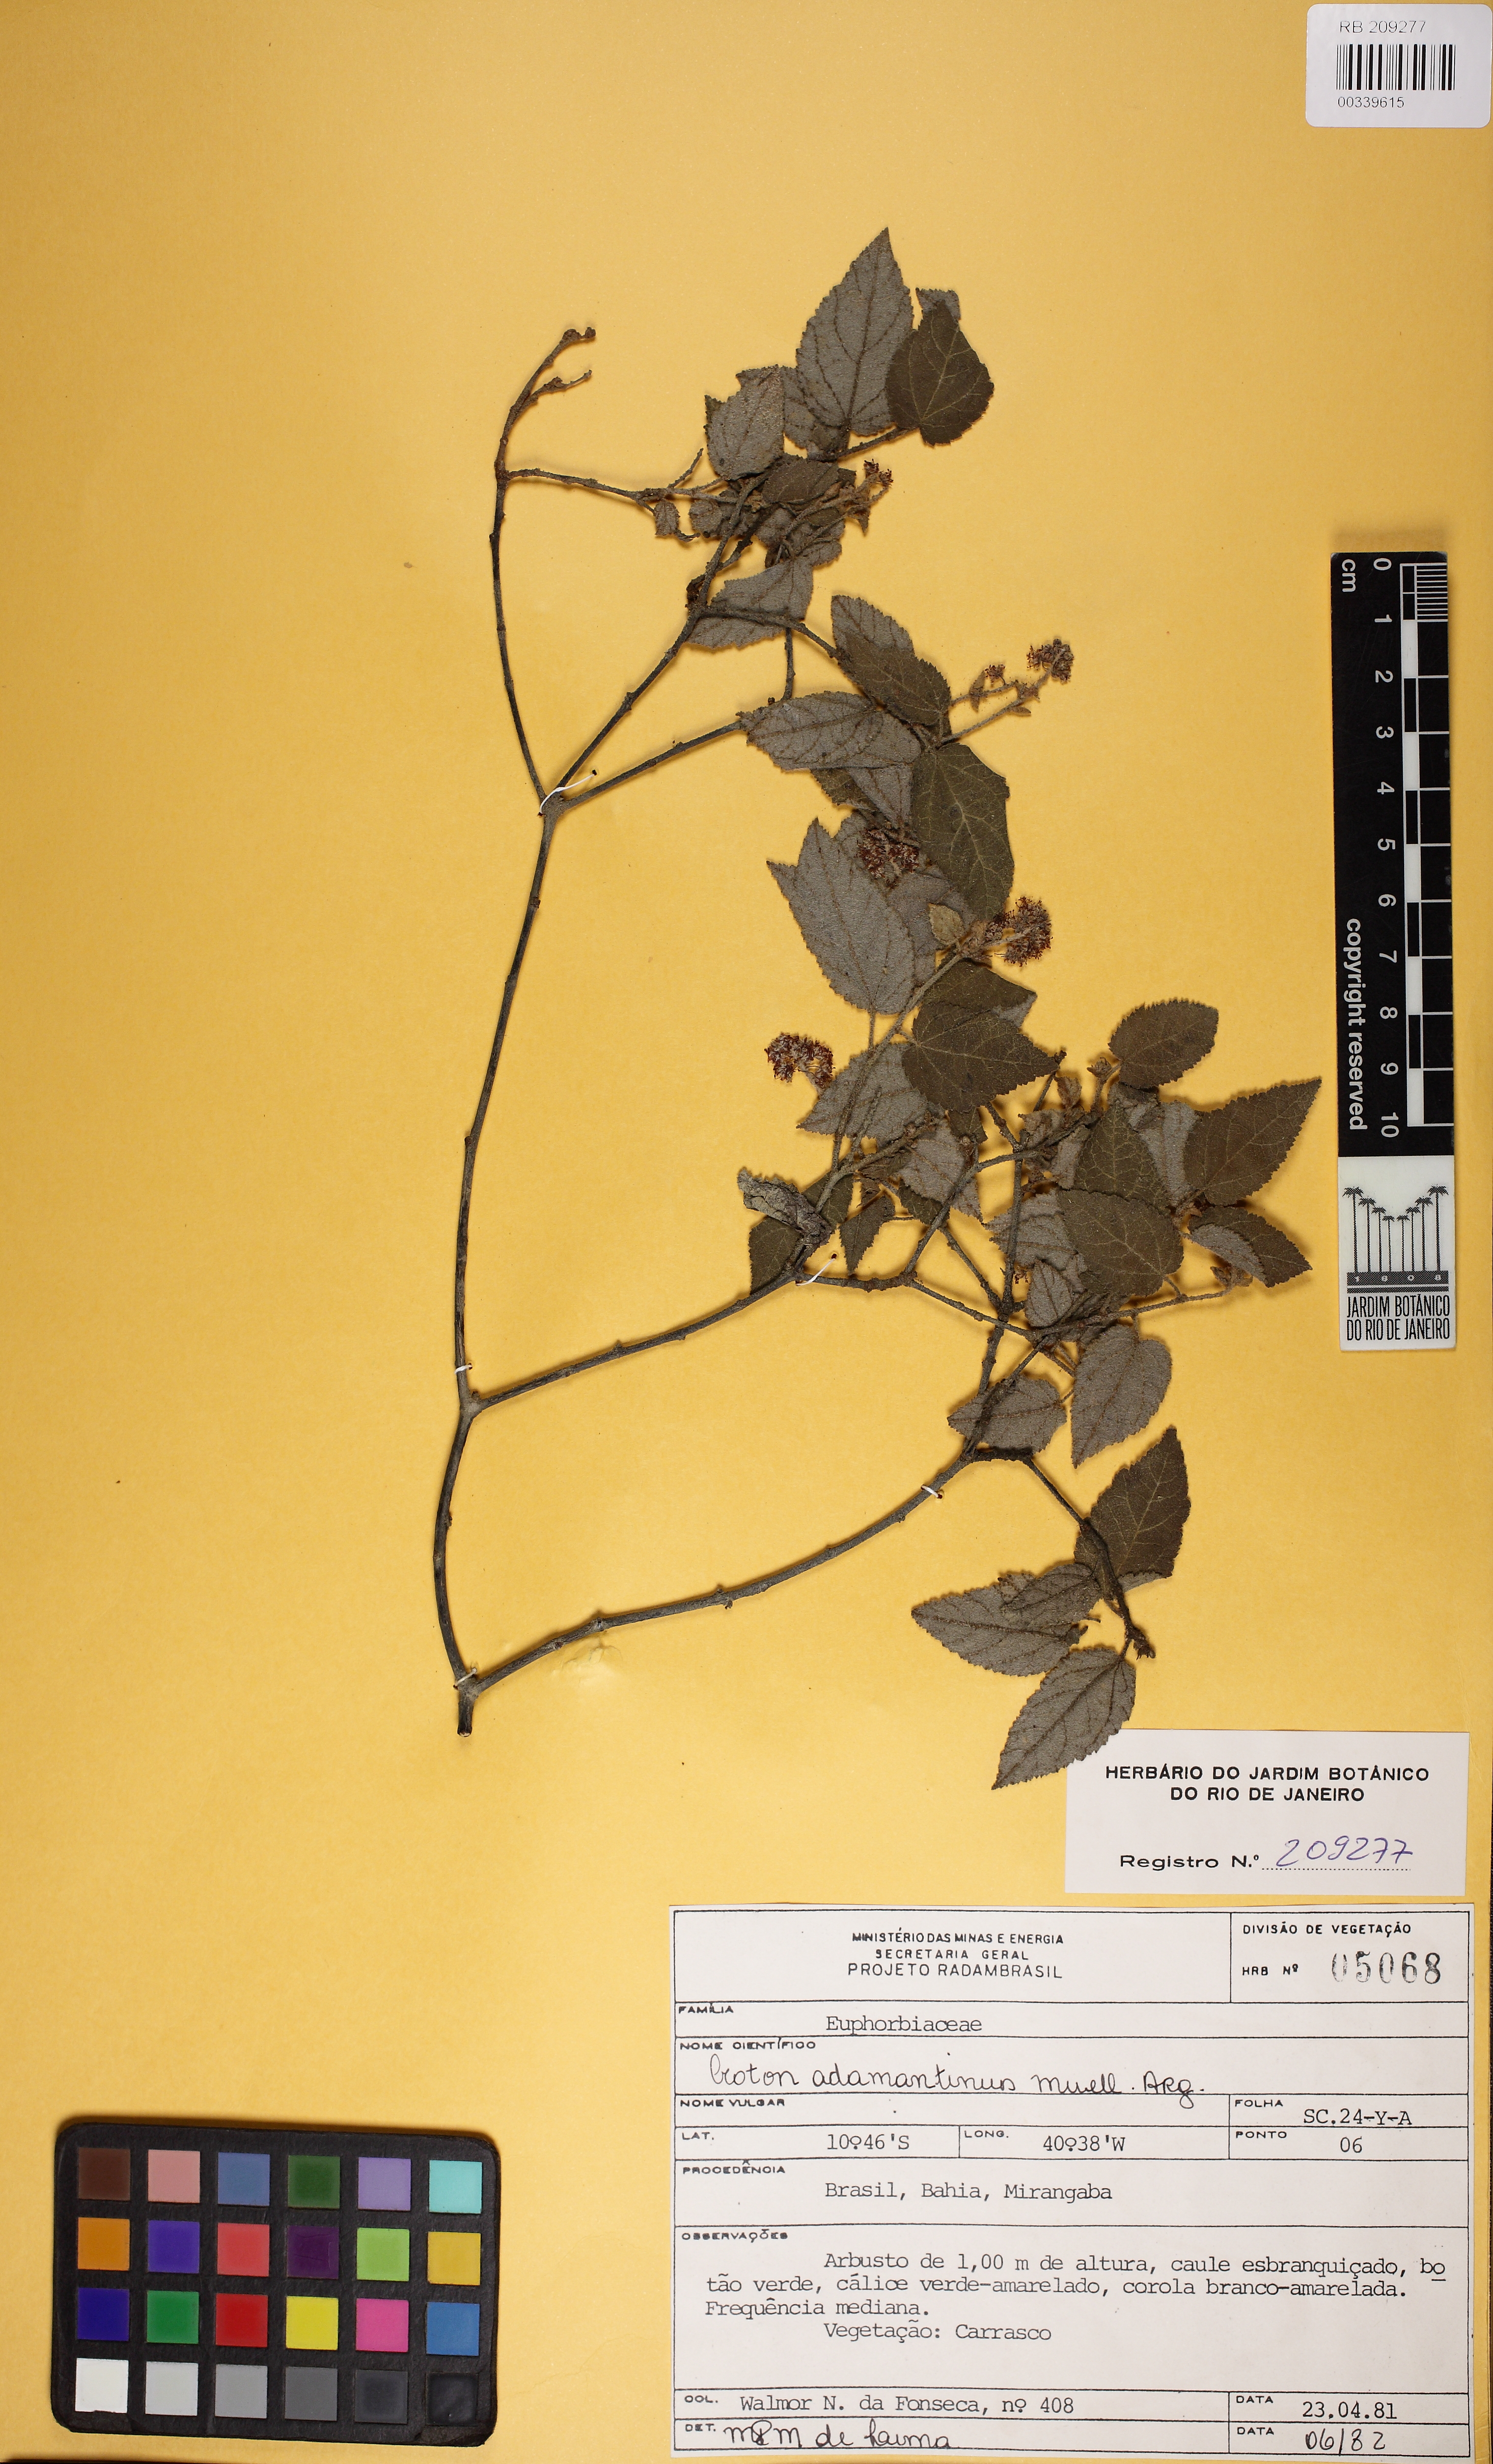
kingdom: Plantae
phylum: Tracheophyta
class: Magnoliopsida
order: Malpighiales
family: Euphorbiaceae
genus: Croton
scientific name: Croton adamantinus
